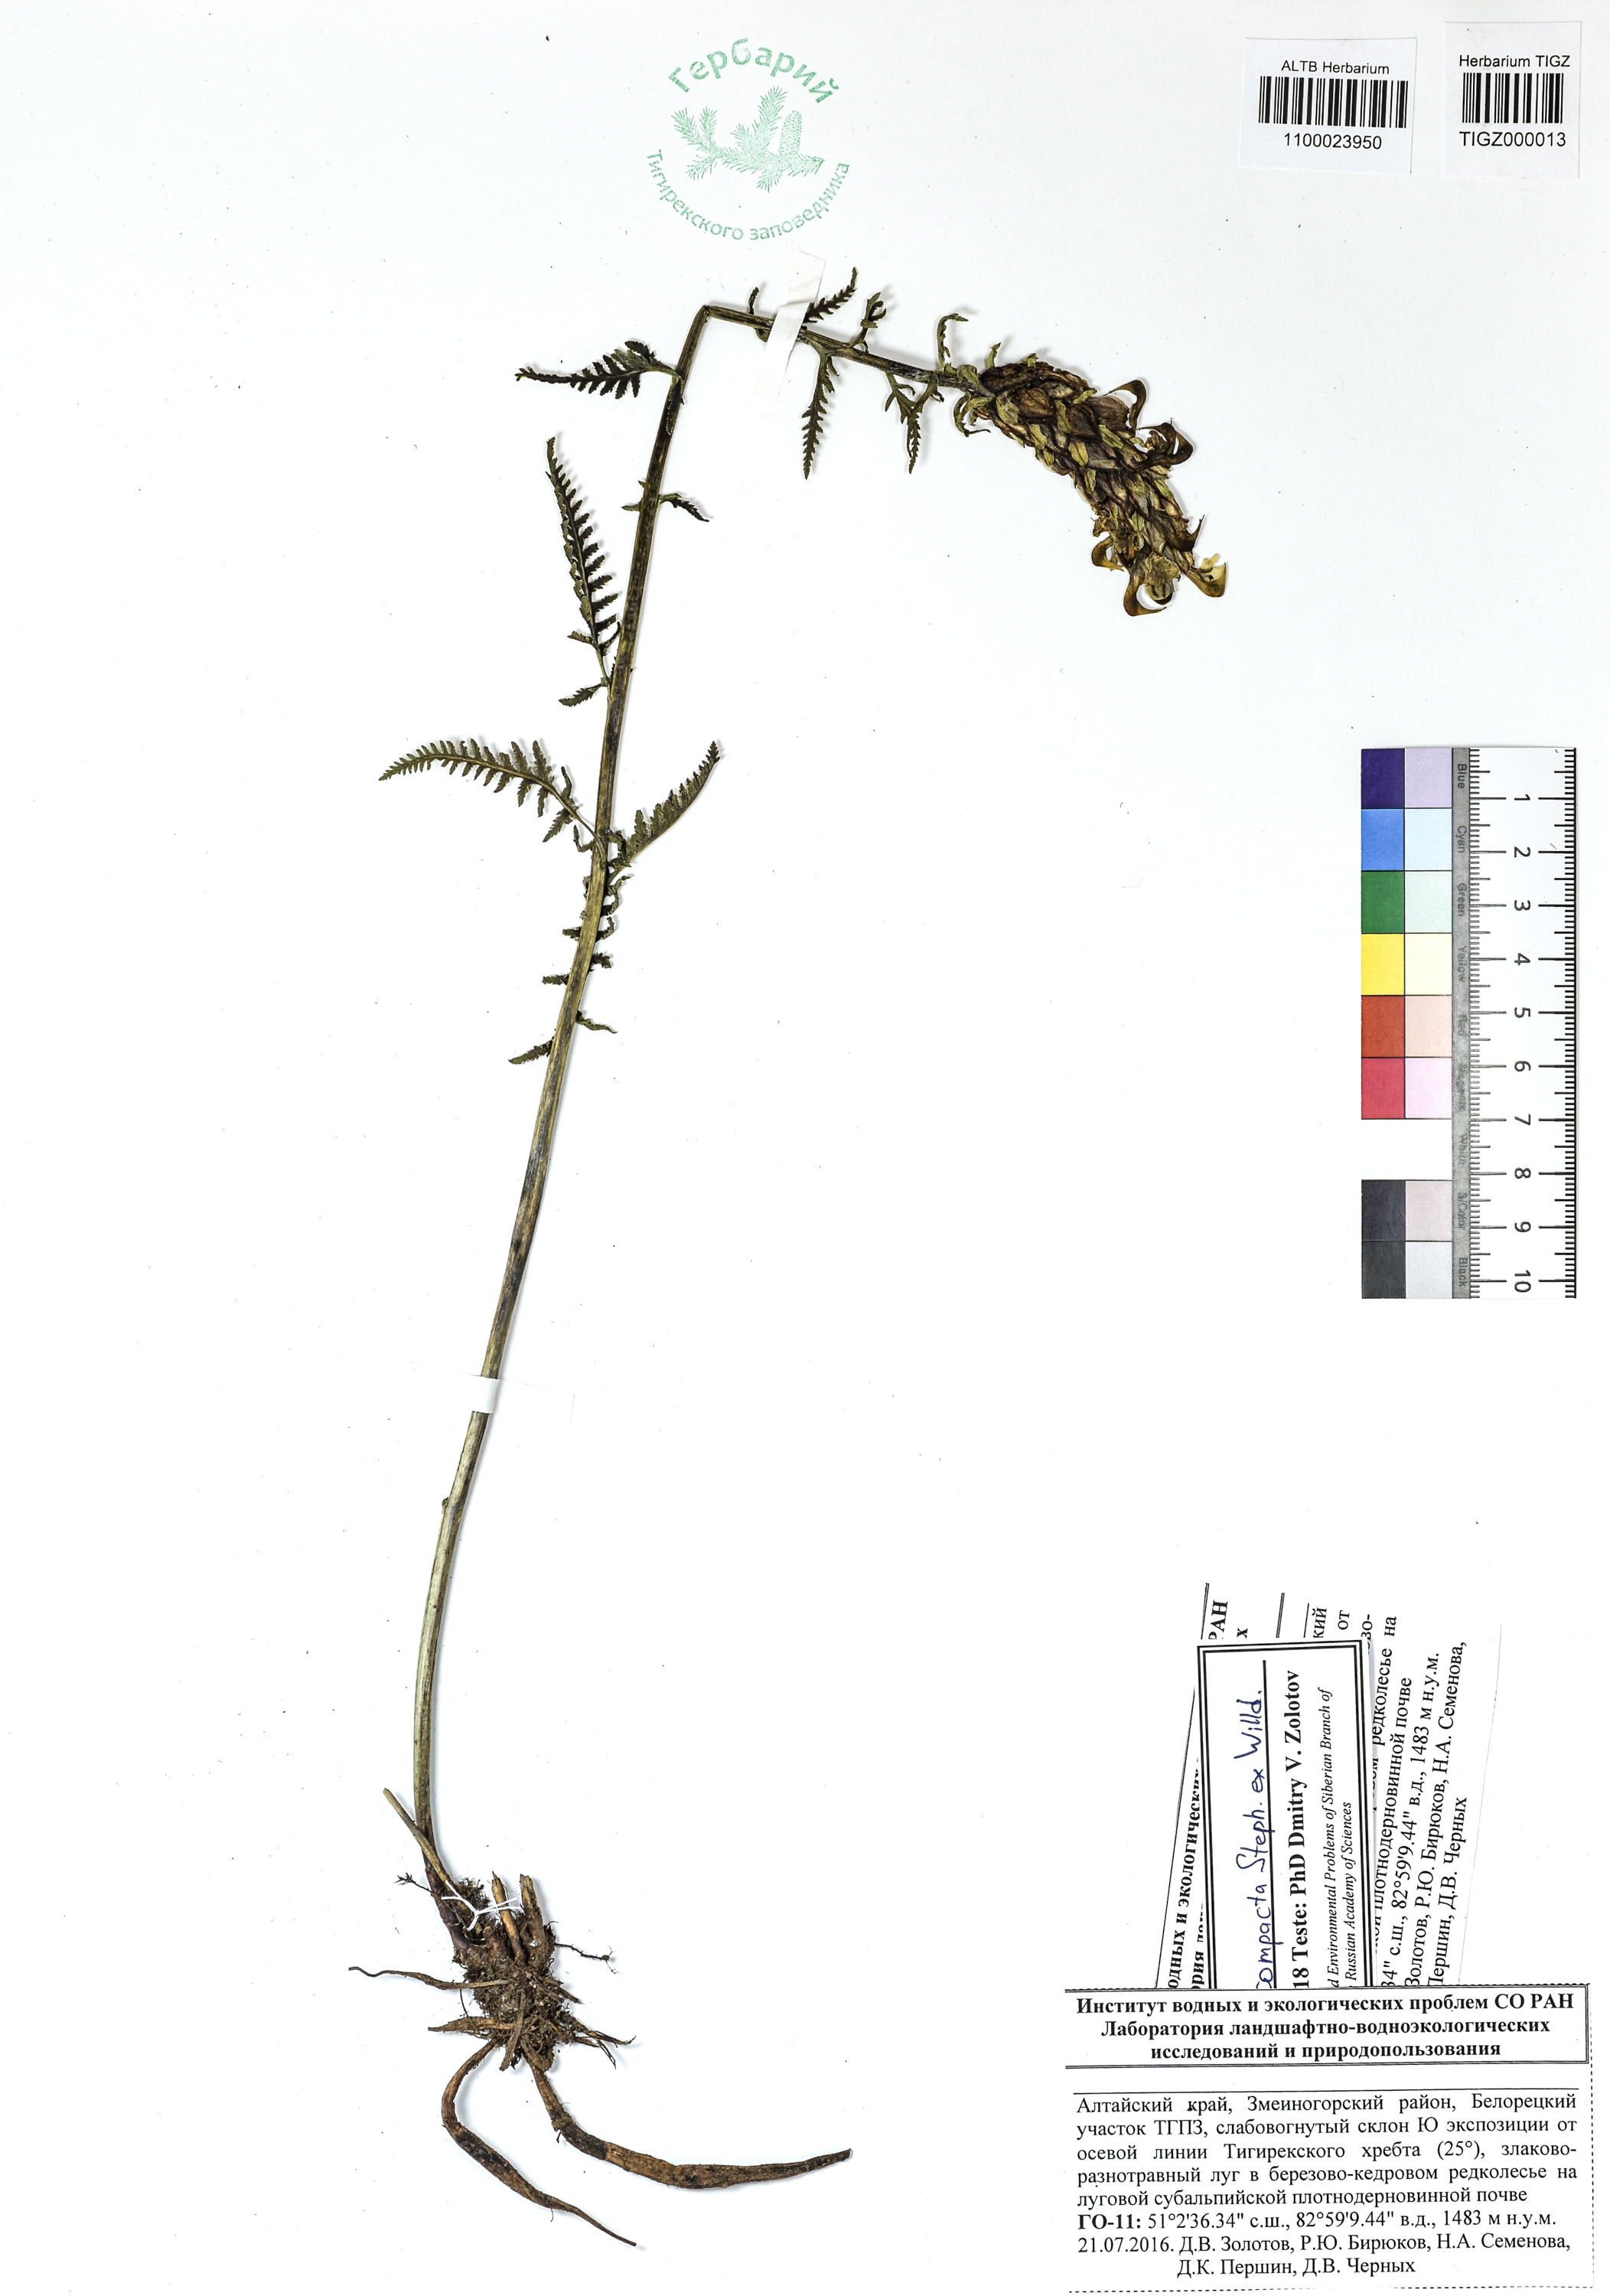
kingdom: Plantae
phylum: Tracheophyta
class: Magnoliopsida
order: Lamiales
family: Orobanchaceae
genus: Pedicularis
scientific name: Pedicularis compacta
